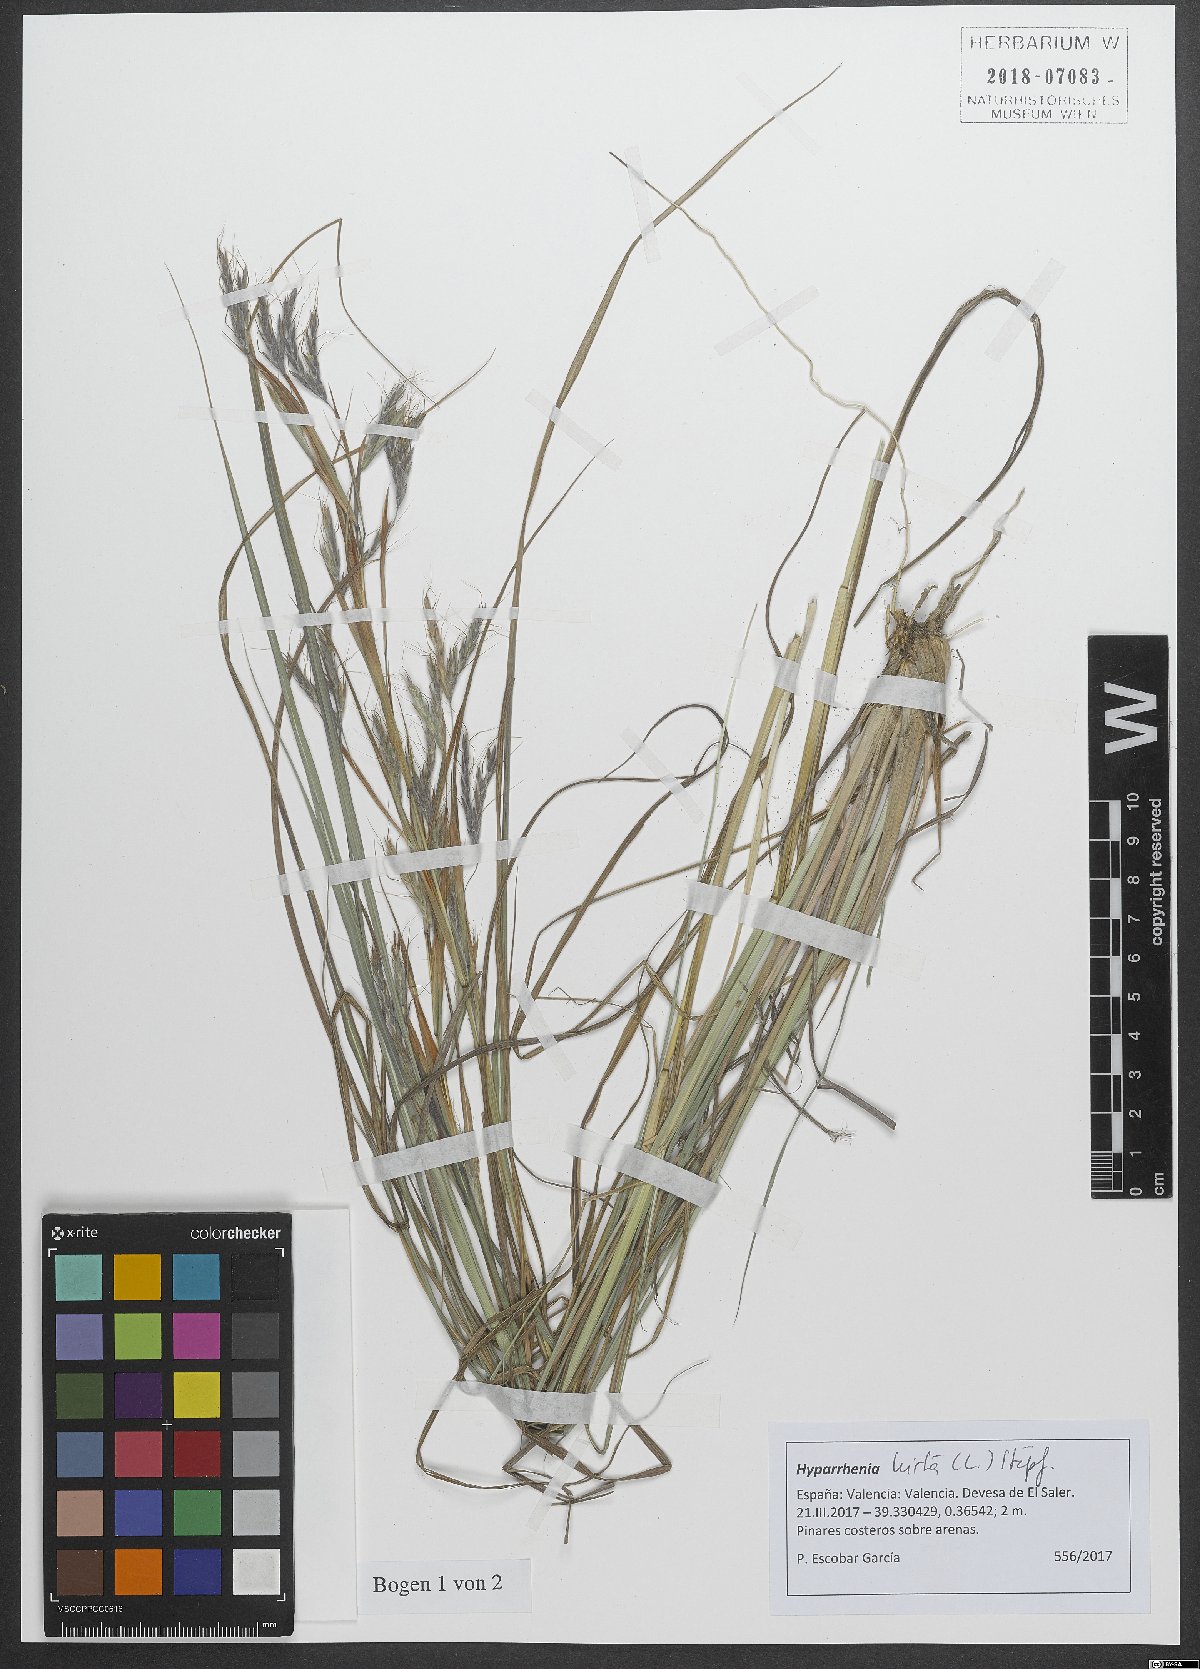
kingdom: Plantae
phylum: Tracheophyta
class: Liliopsida
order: Poales
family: Poaceae
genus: Hyparrhenia
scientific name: Hyparrhenia hirta
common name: Thatching grass
